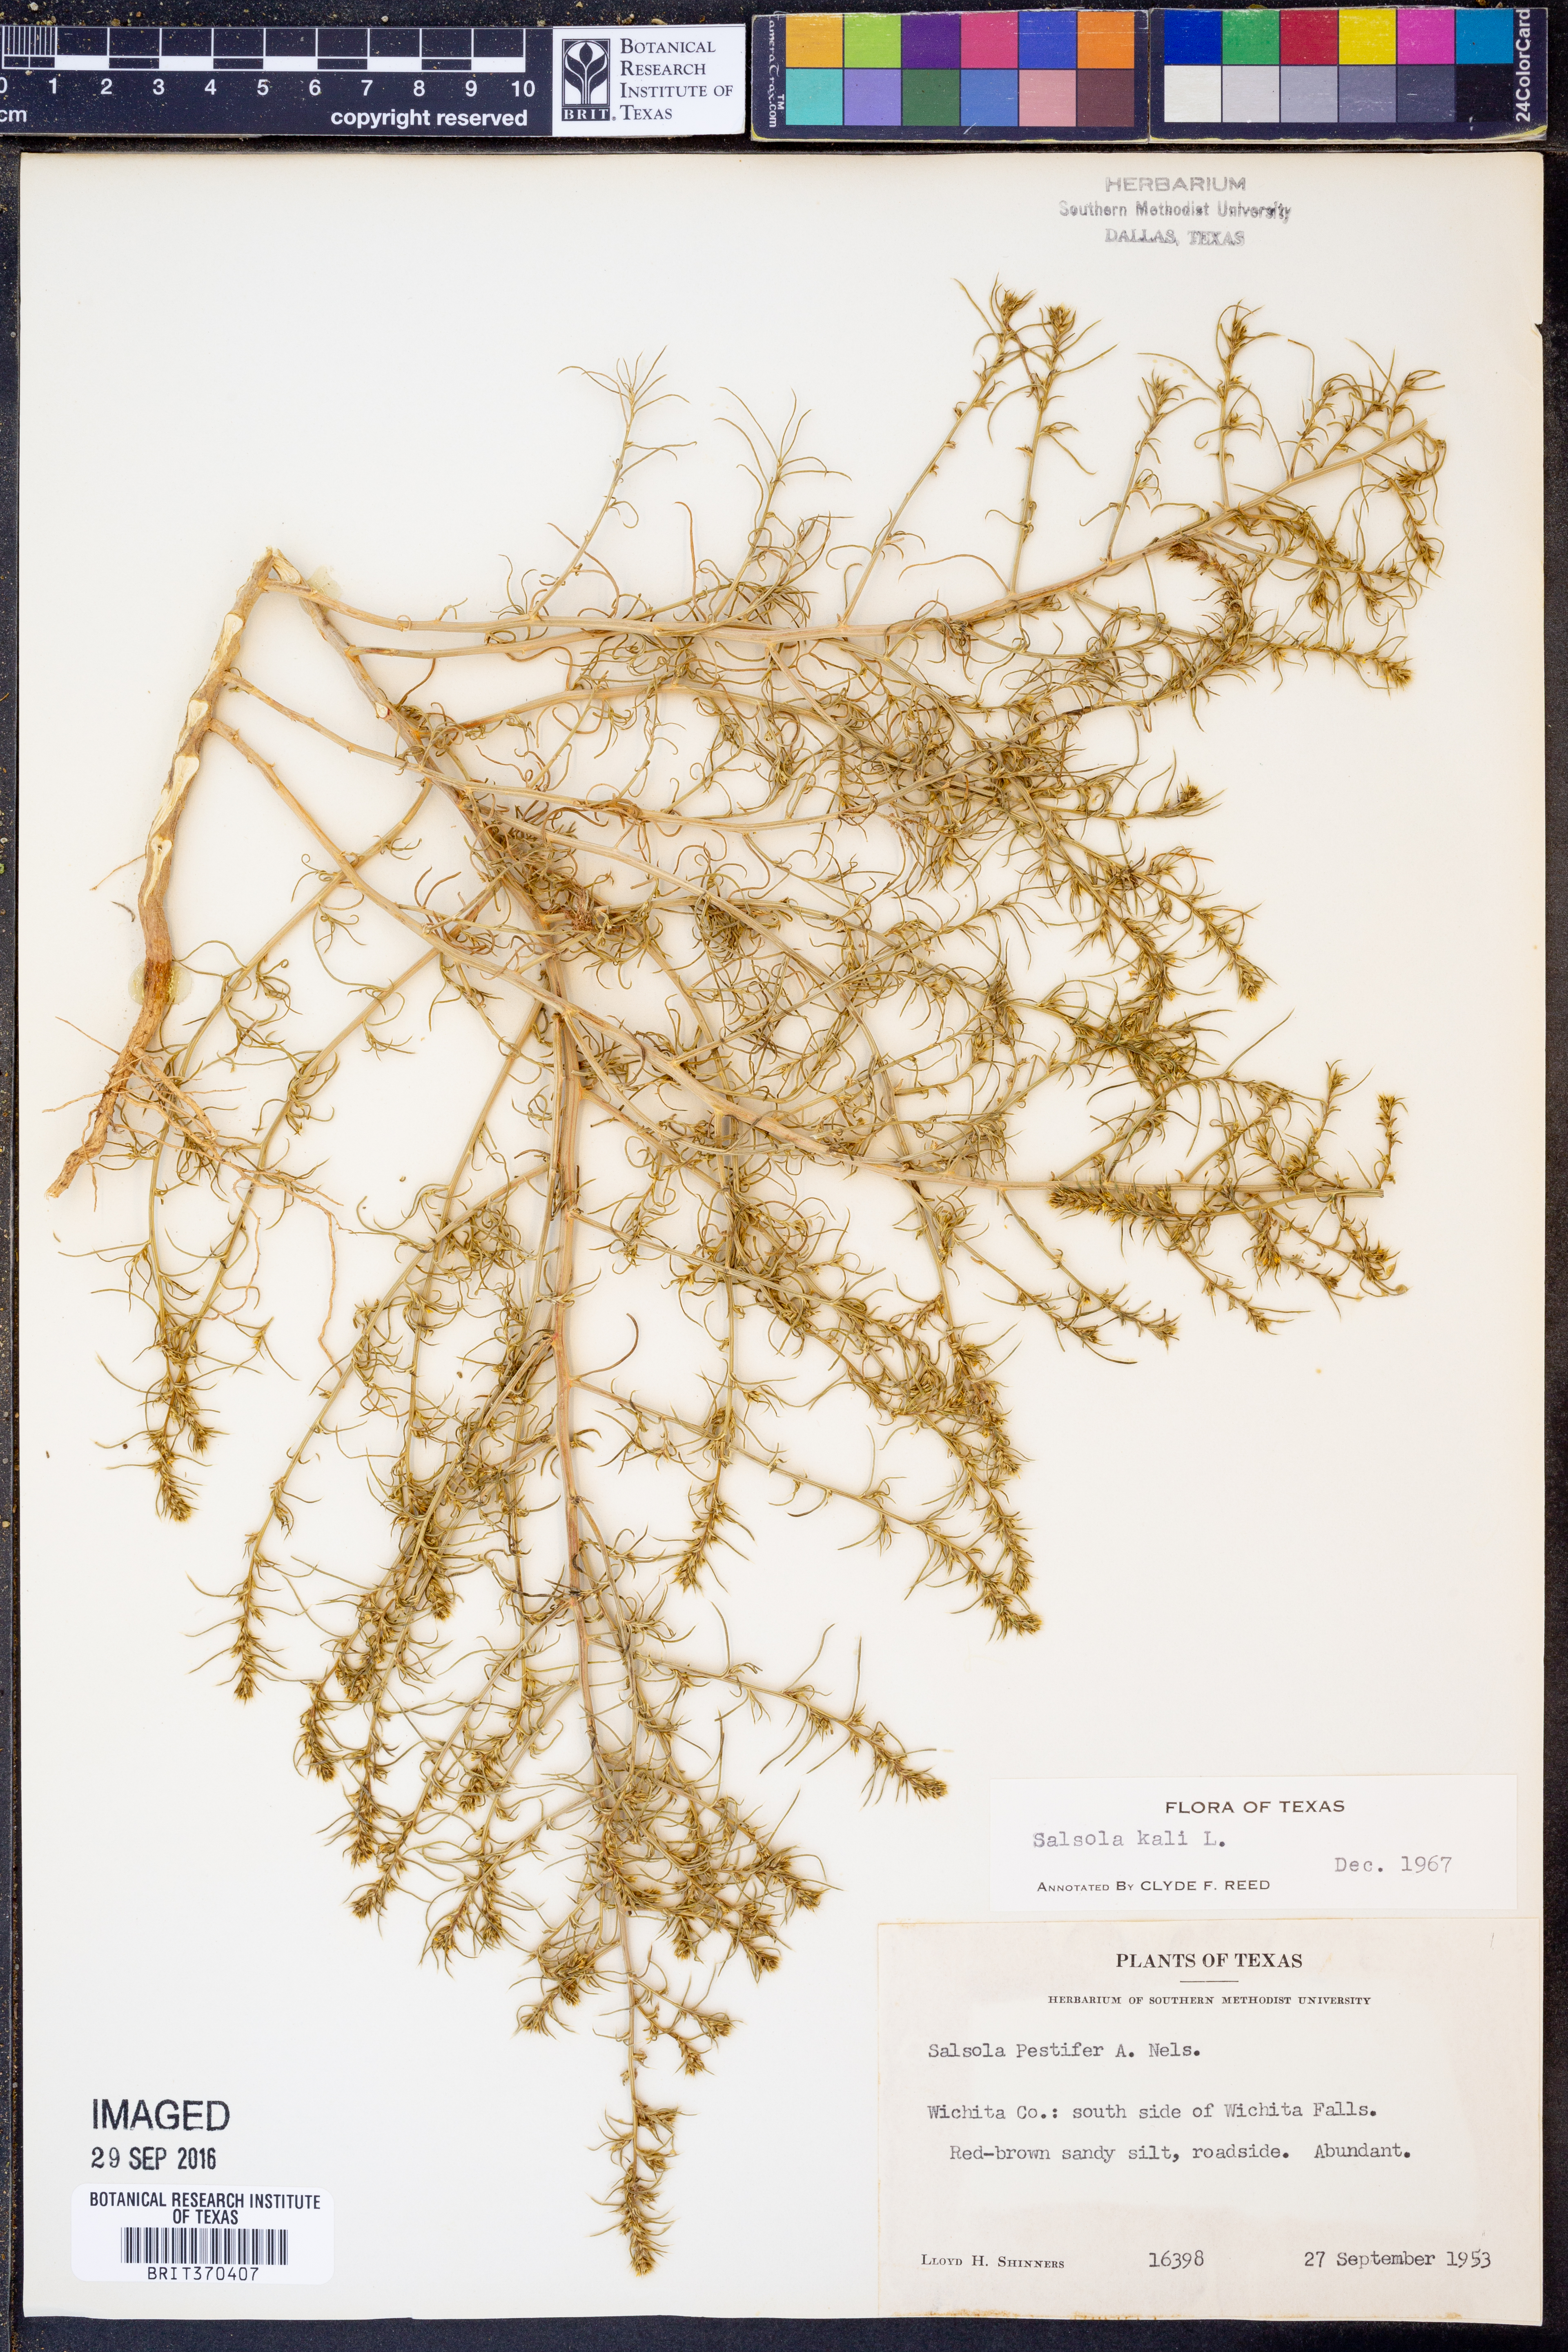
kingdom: Plantae
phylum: Tracheophyta
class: Magnoliopsida
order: Caryophyllales
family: Amaranthaceae
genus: Salsola
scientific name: Salsola tragus
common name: Prickly russian thistle
